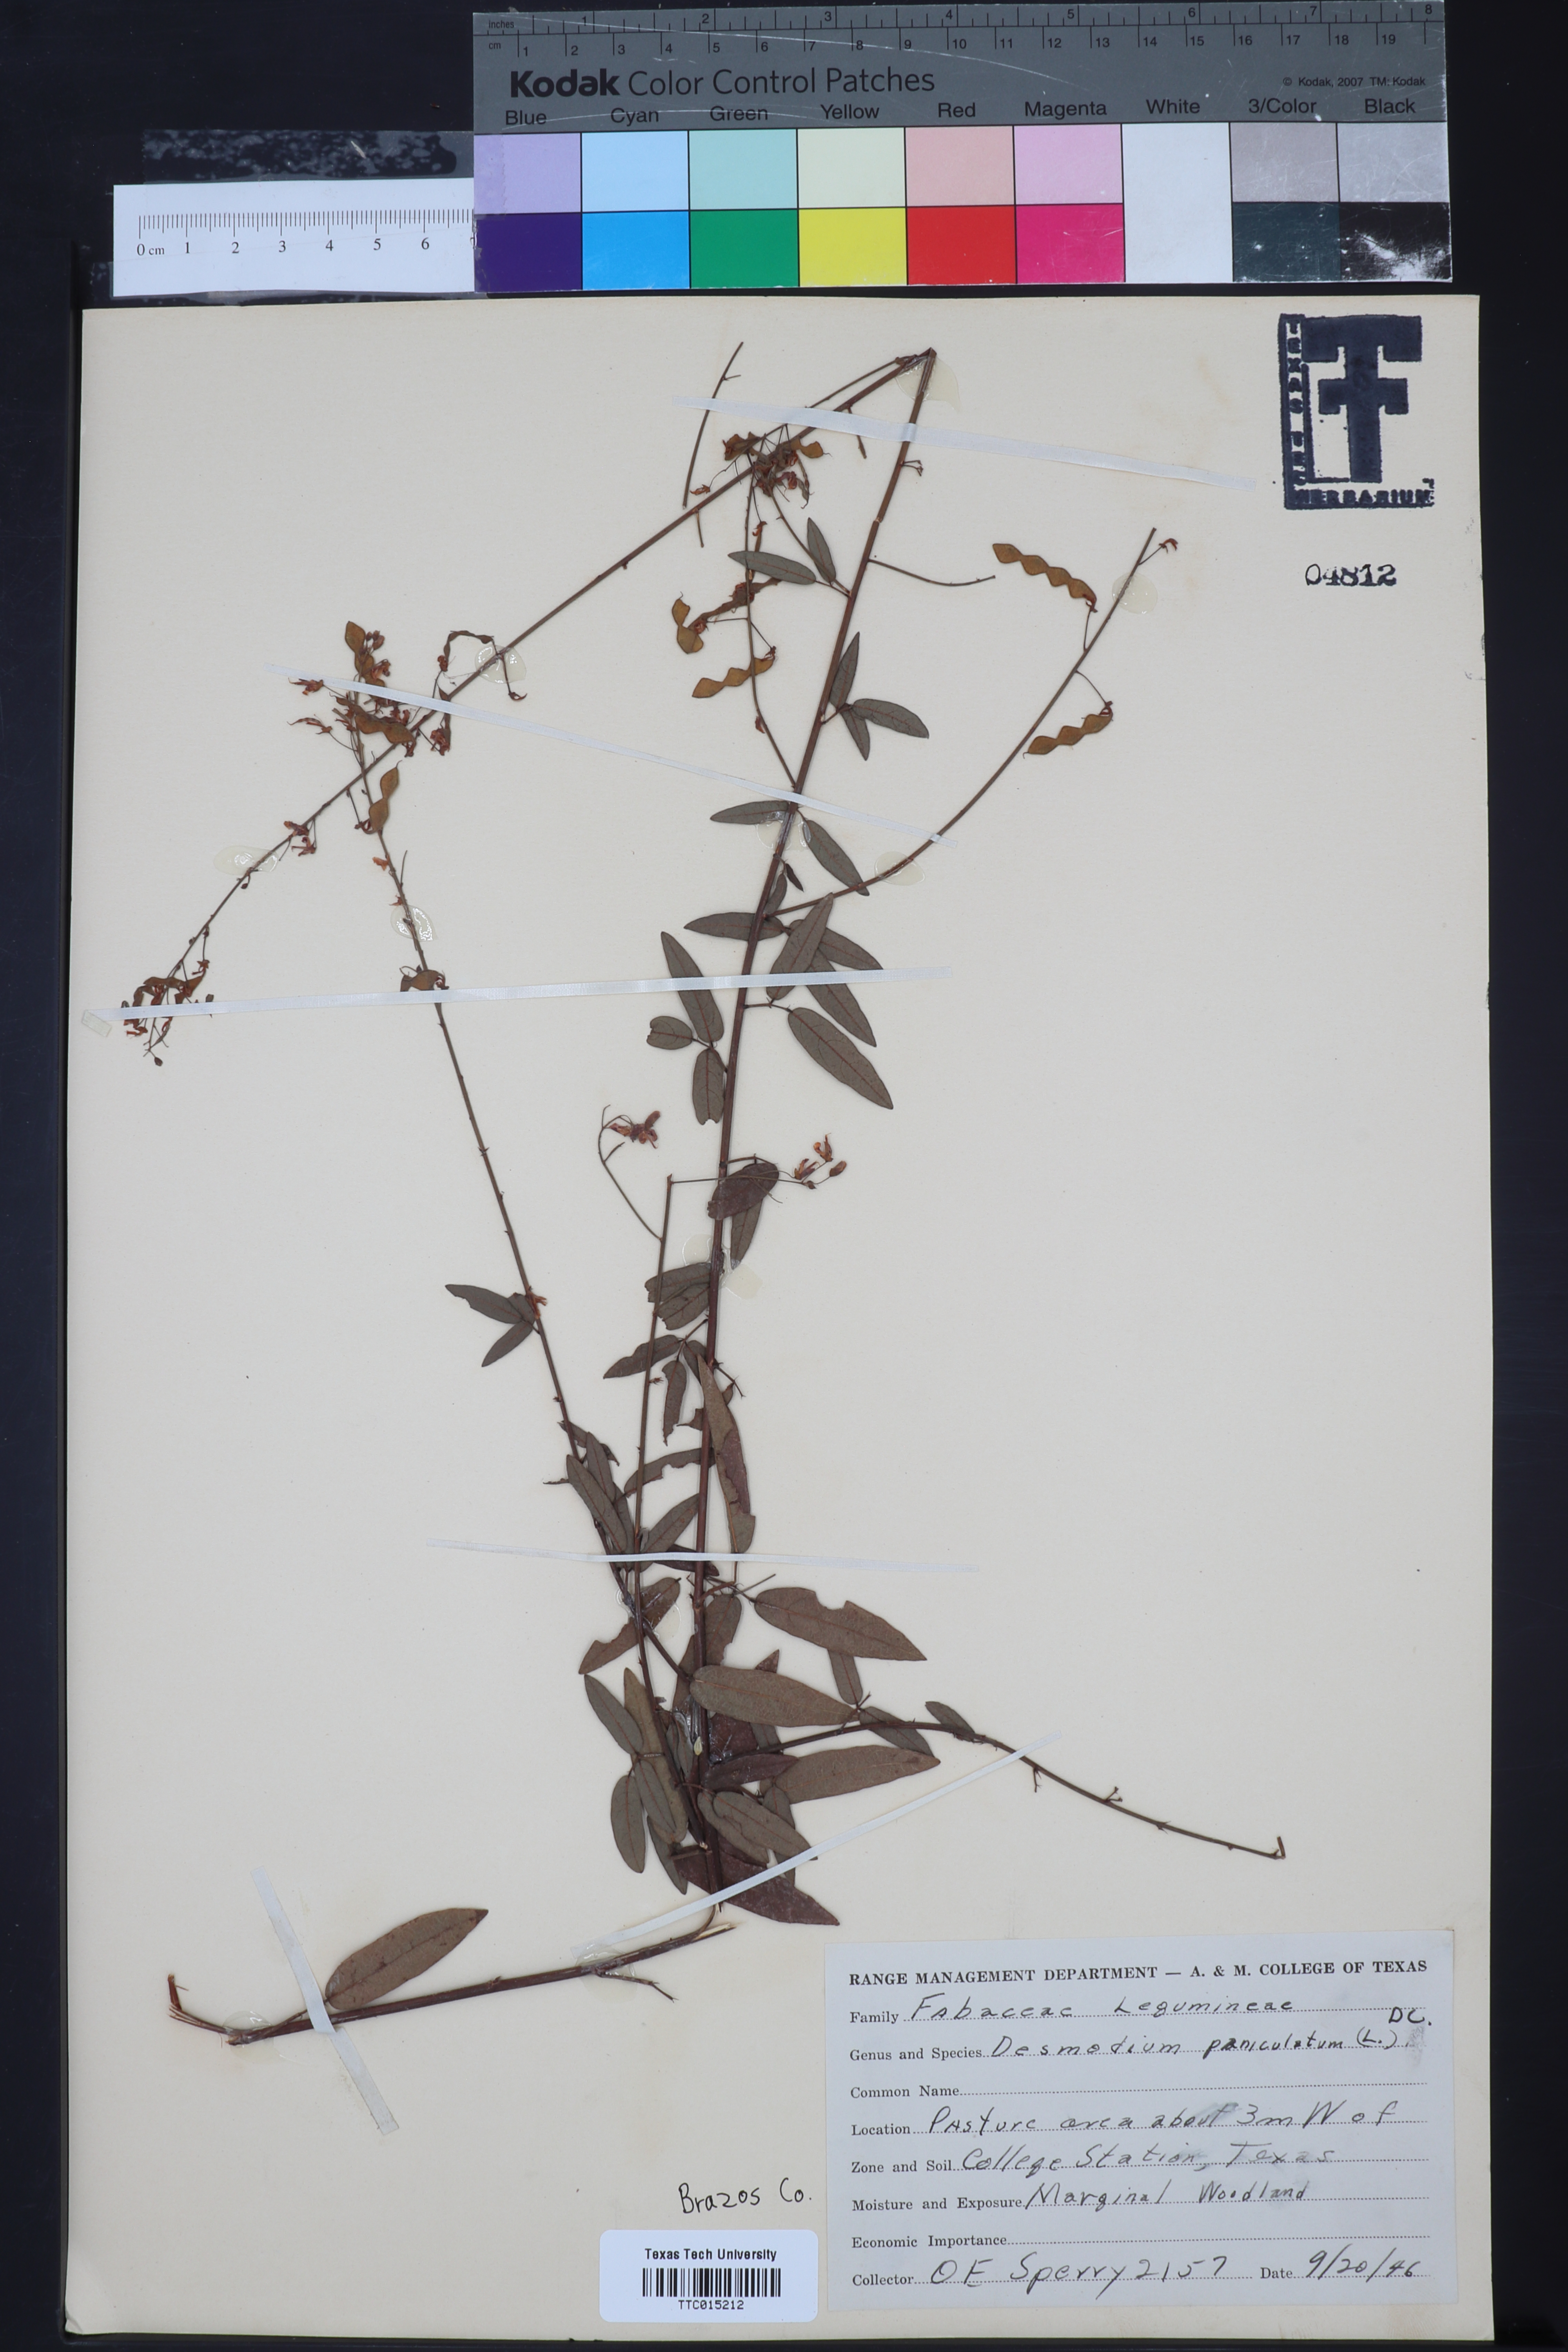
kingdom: Plantae
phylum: Tracheophyta
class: Magnoliopsida
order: Fabales
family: Fabaceae
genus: Desmodium
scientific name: Desmodium paniculatum
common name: Panicled tick-clover
